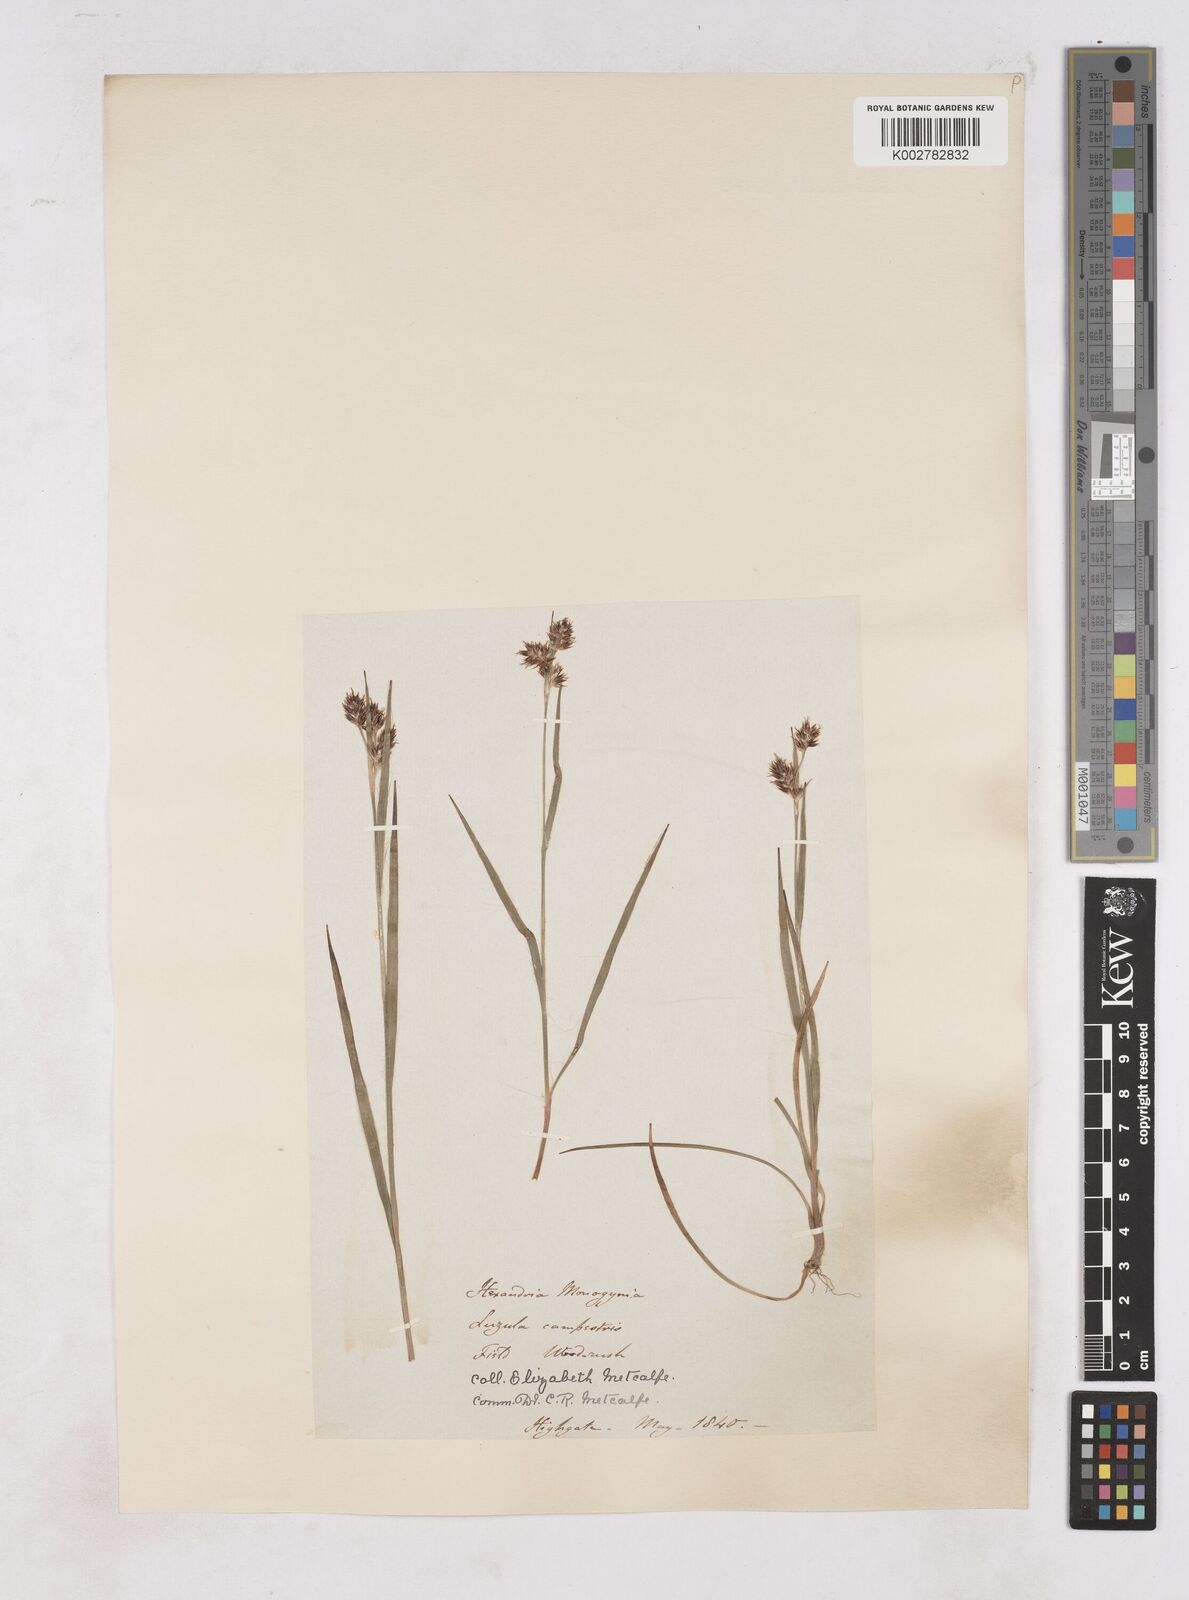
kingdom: Plantae
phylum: Tracheophyta
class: Liliopsida
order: Poales
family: Juncaceae
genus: Luzula
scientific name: Luzula campestris
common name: Field wood-rush
